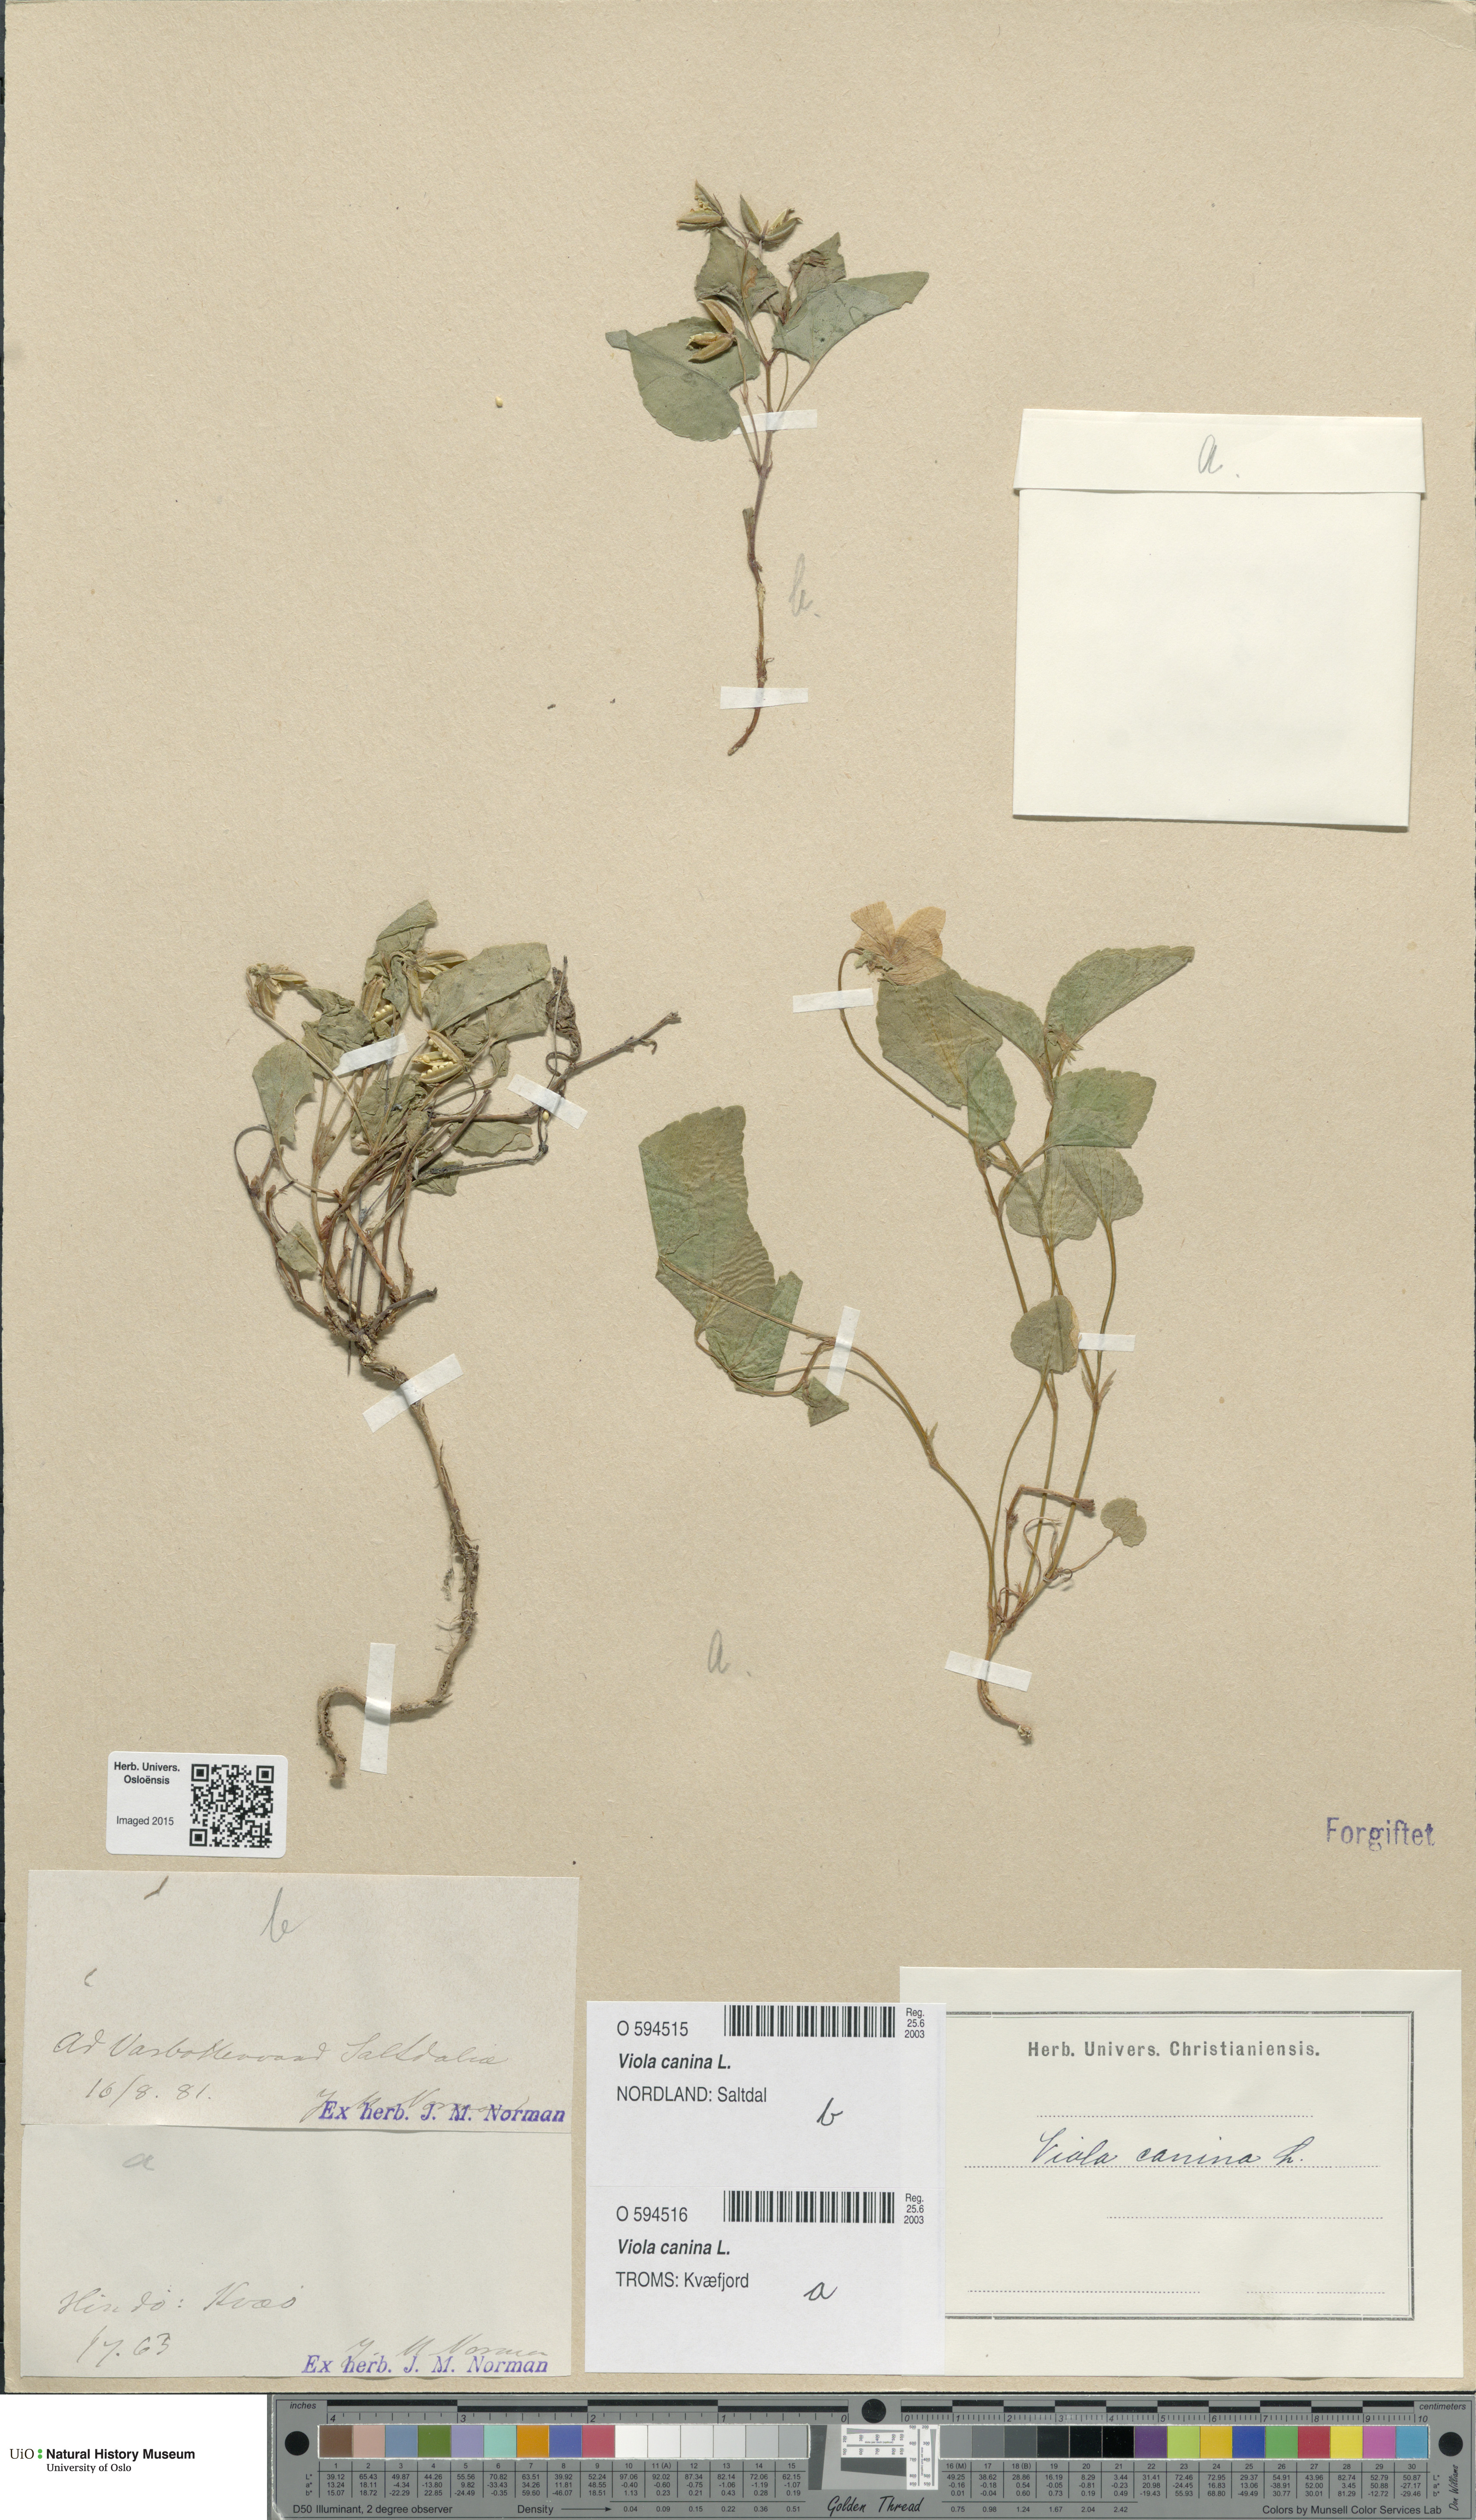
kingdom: Plantae
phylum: Tracheophyta
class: Magnoliopsida
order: Malpighiales
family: Violaceae
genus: Viola
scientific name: Viola canina
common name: Heath dog-violet
